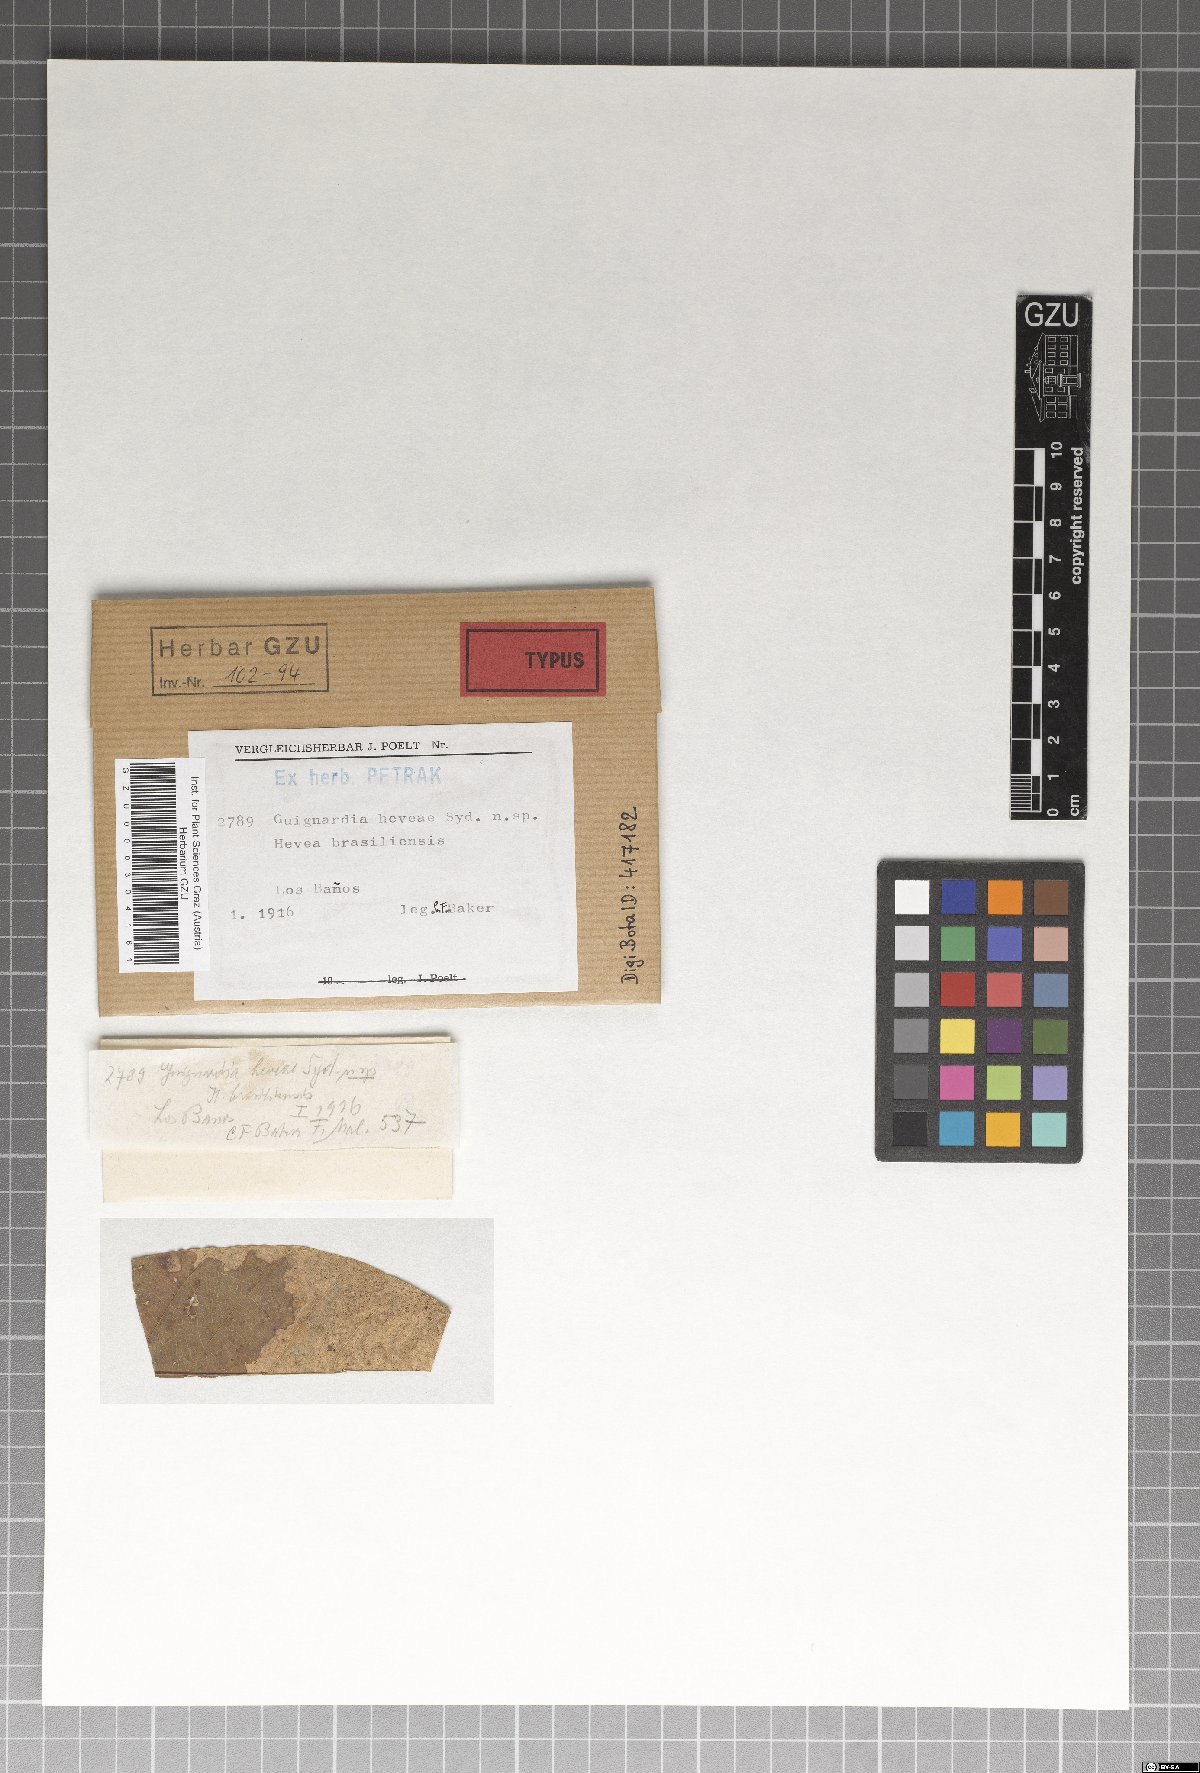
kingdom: Fungi
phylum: Ascomycota
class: Dothideomycetes
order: Botryosphaeriales
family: Phyllostictaceae
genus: Guignardia
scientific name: Guignardia heveae
